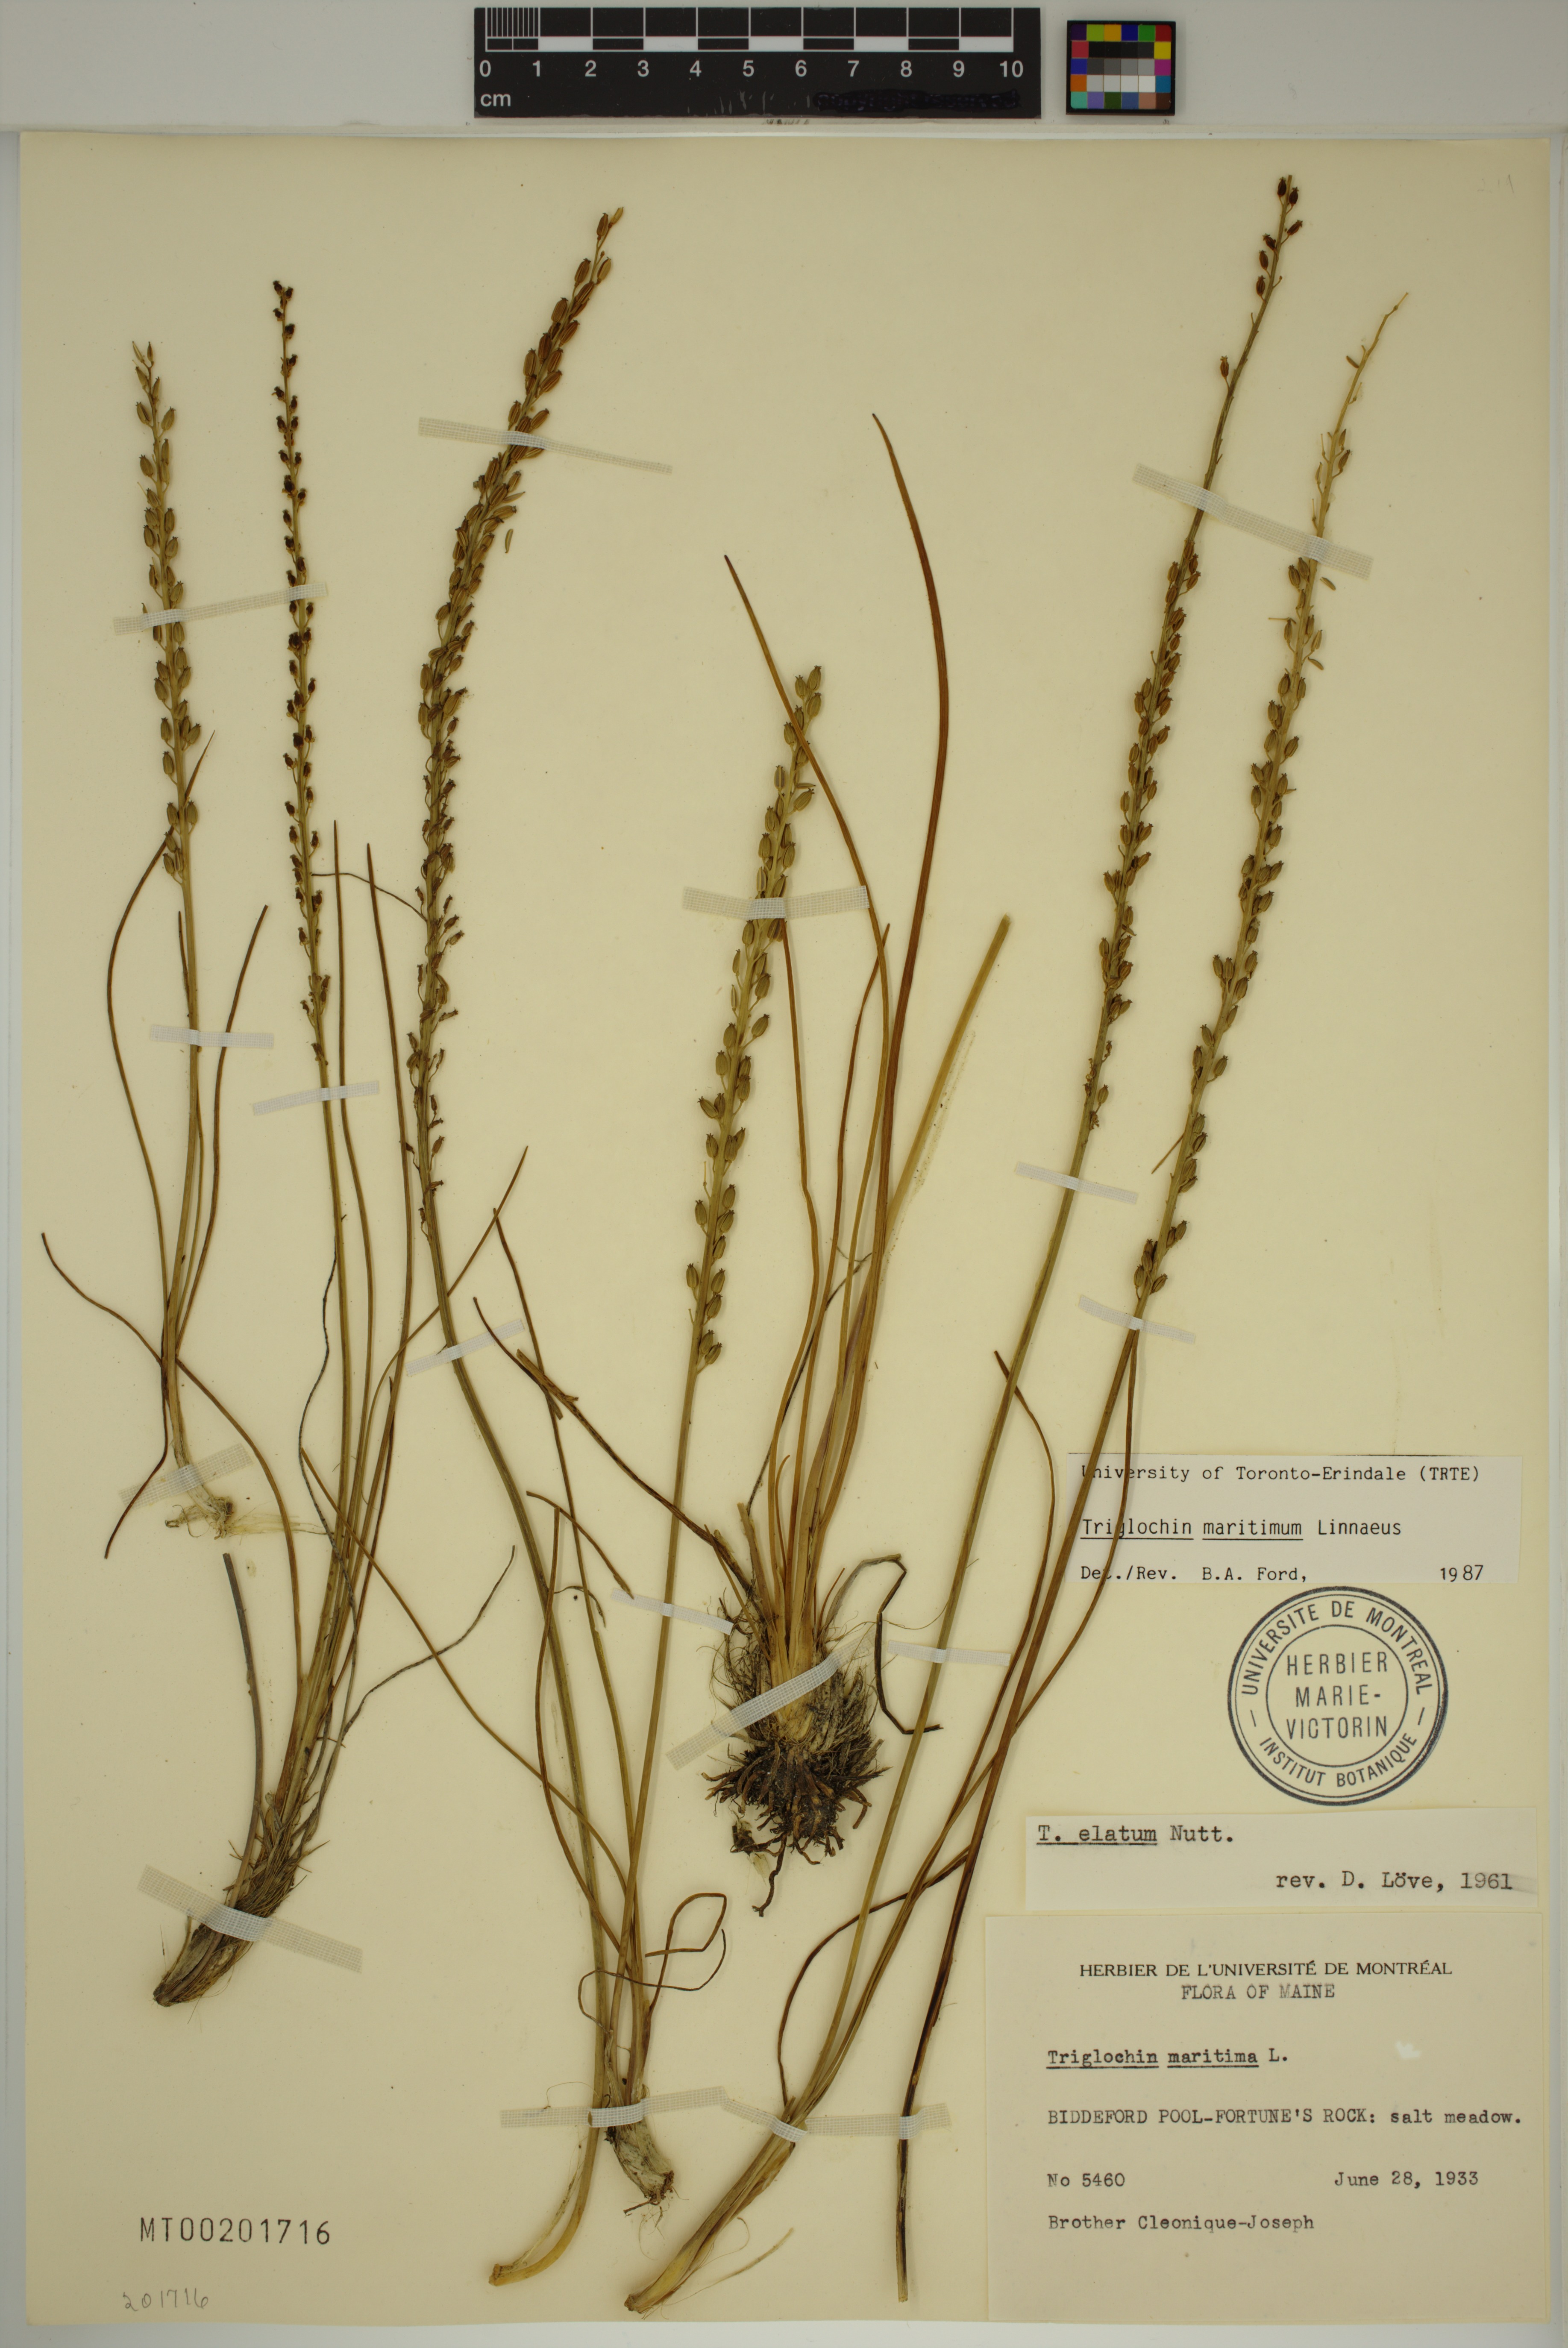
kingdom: Plantae
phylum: Tracheophyta
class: Liliopsida
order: Alismatales
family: Juncaginaceae
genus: Triglochin
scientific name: Triglochin maritima
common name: Sea arrowgrass
